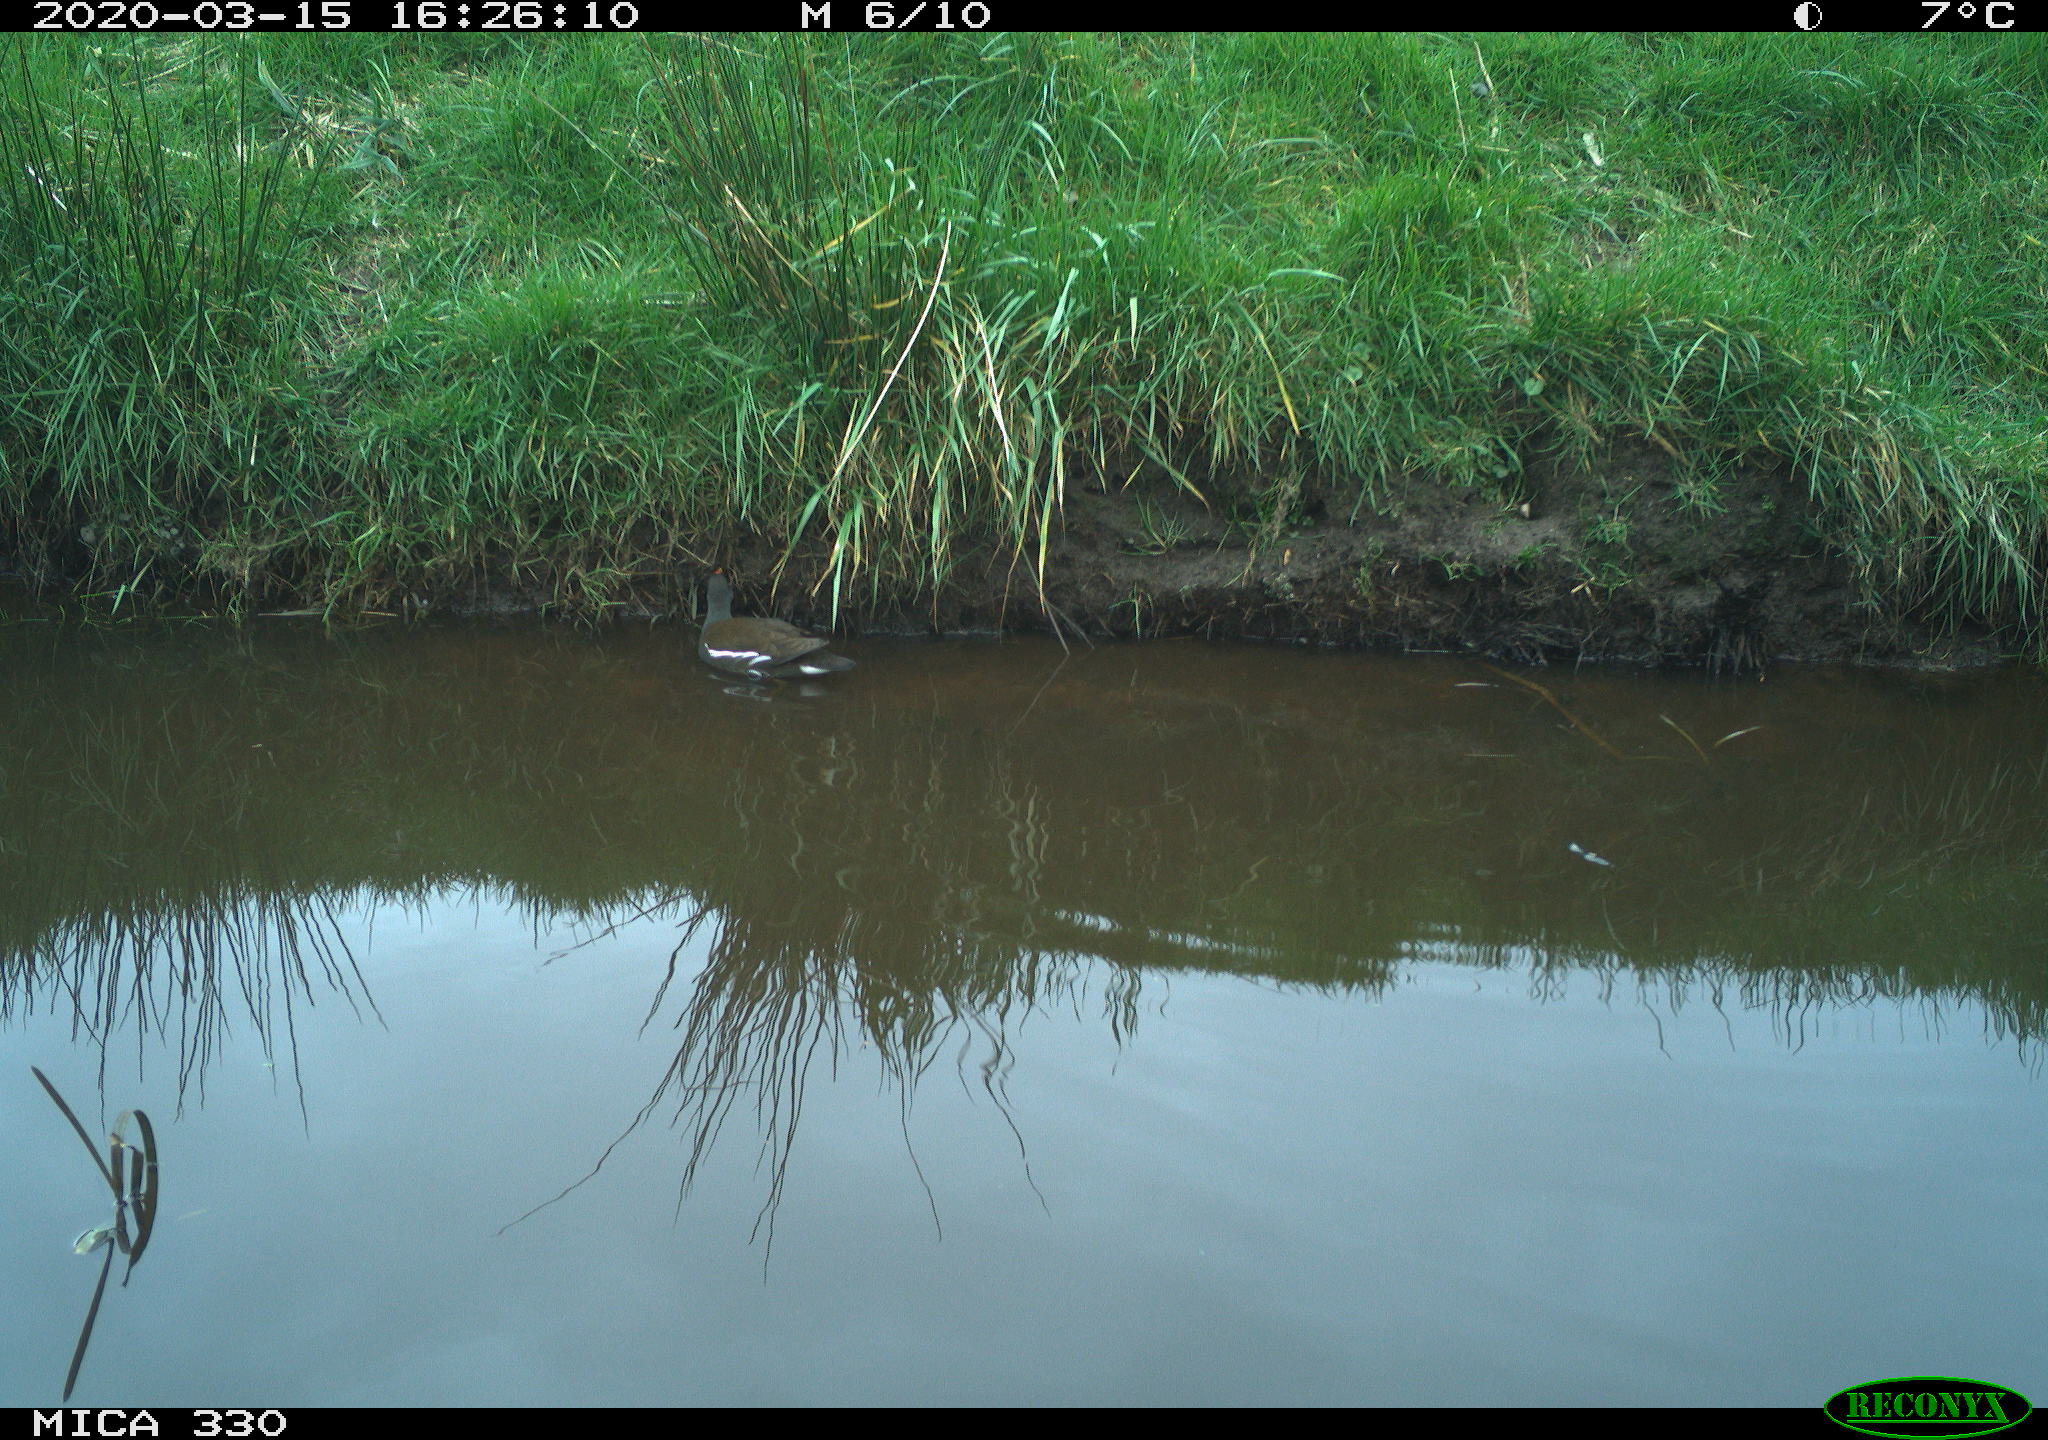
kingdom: Animalia
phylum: Chordata
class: Aves
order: Gruiformes
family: Rallidae
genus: Gallinula
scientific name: Gallinula chloropus
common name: Common moorhen
